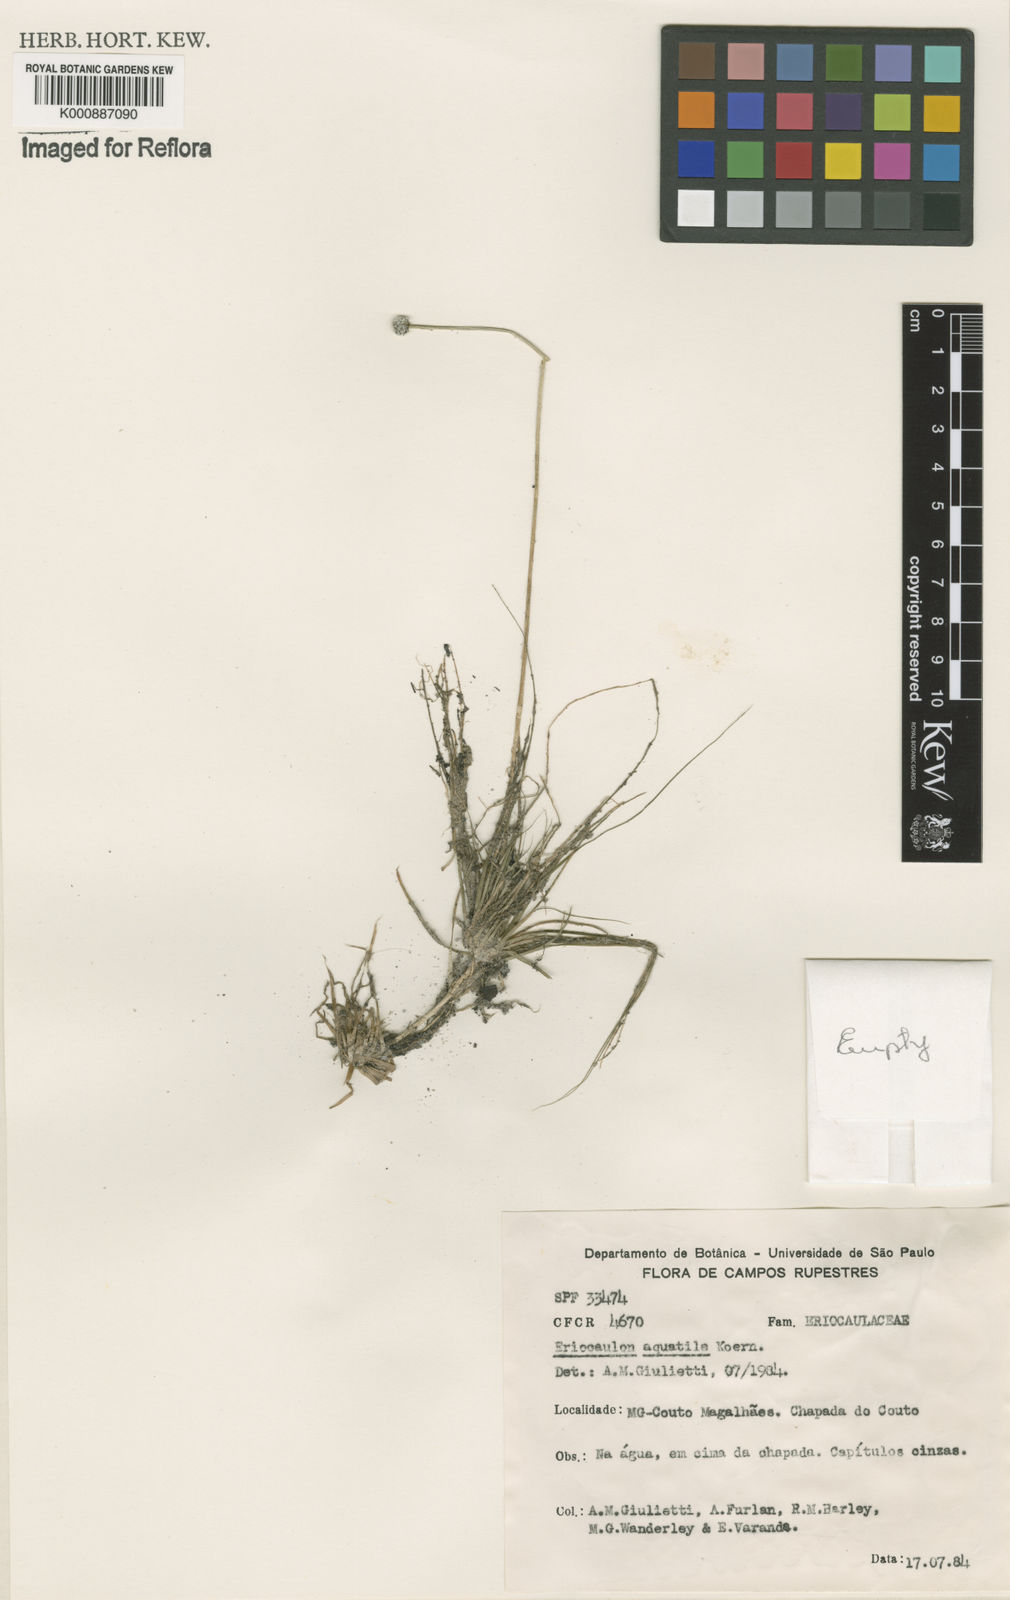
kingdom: Plantae
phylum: Tracheophyta
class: Liliopsida
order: Poales
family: Eriocaulaceae
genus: Eriocaulon
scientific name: Eriocaulon
